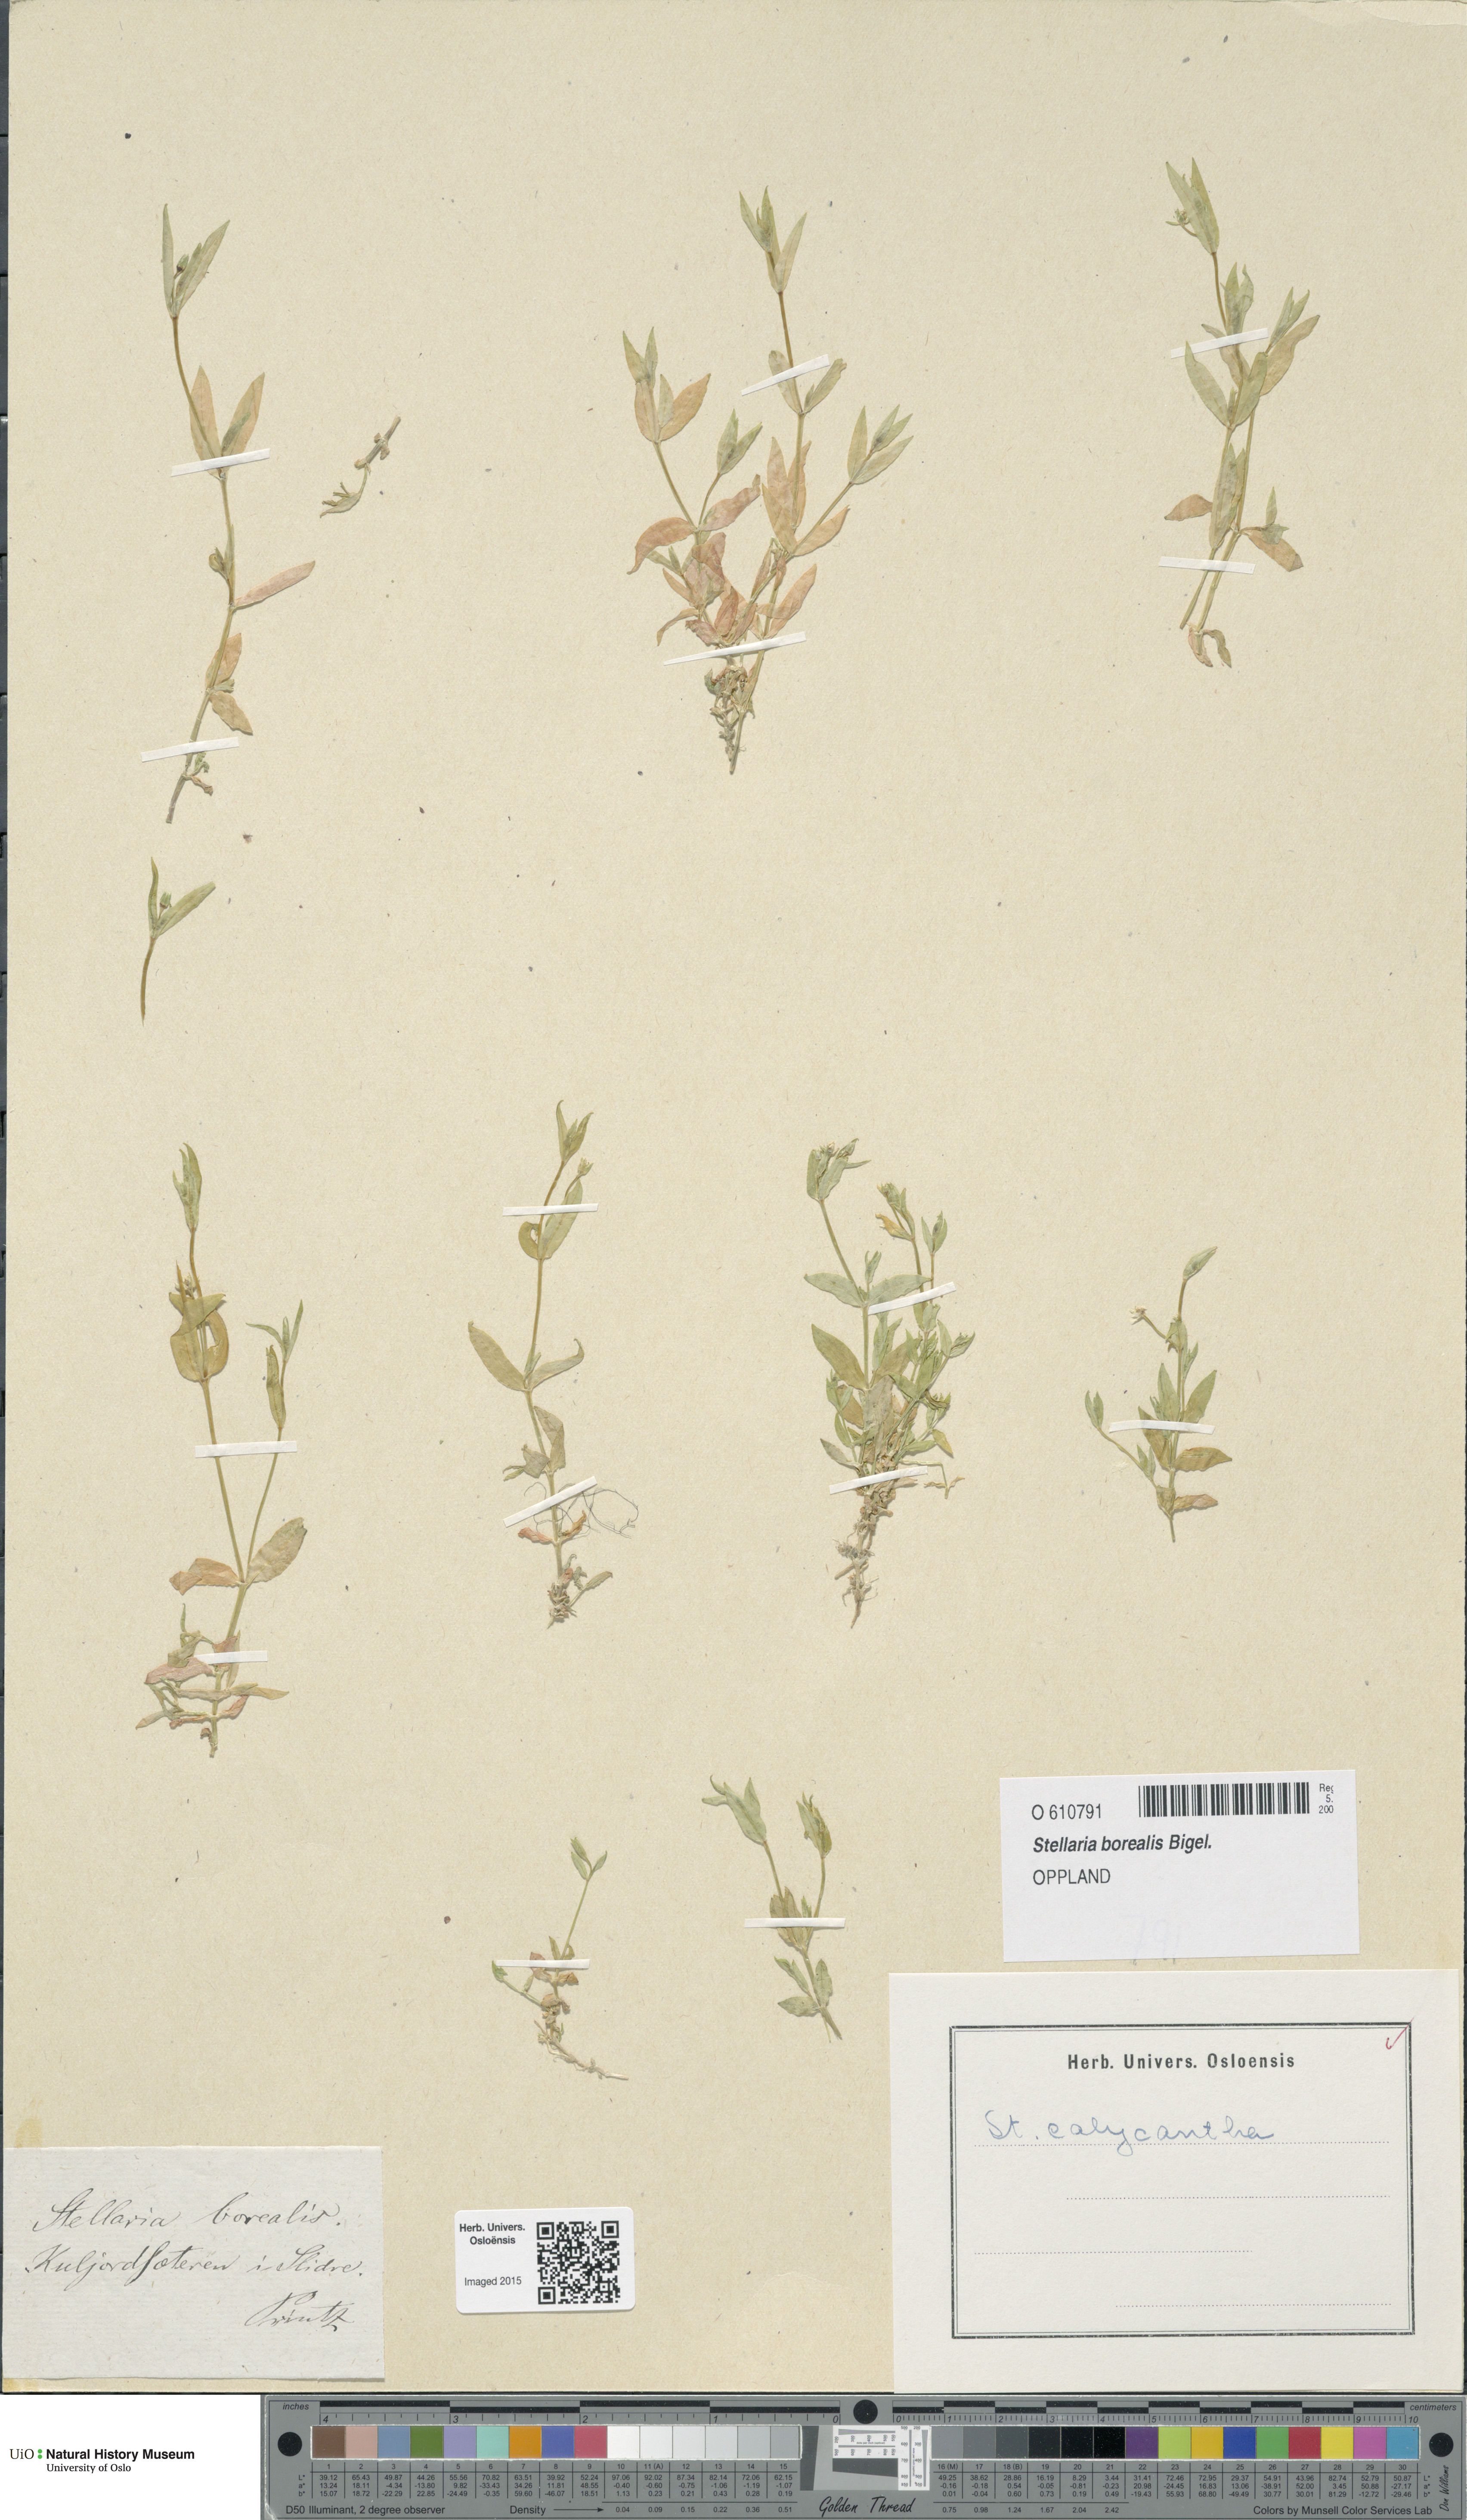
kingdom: Plantae
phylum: Tracheophyta
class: Magnoliopsida
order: Caryophyllales
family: Caryophyllaceae
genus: Stellaria
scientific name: Stellaria borealis
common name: Boreal starwort
